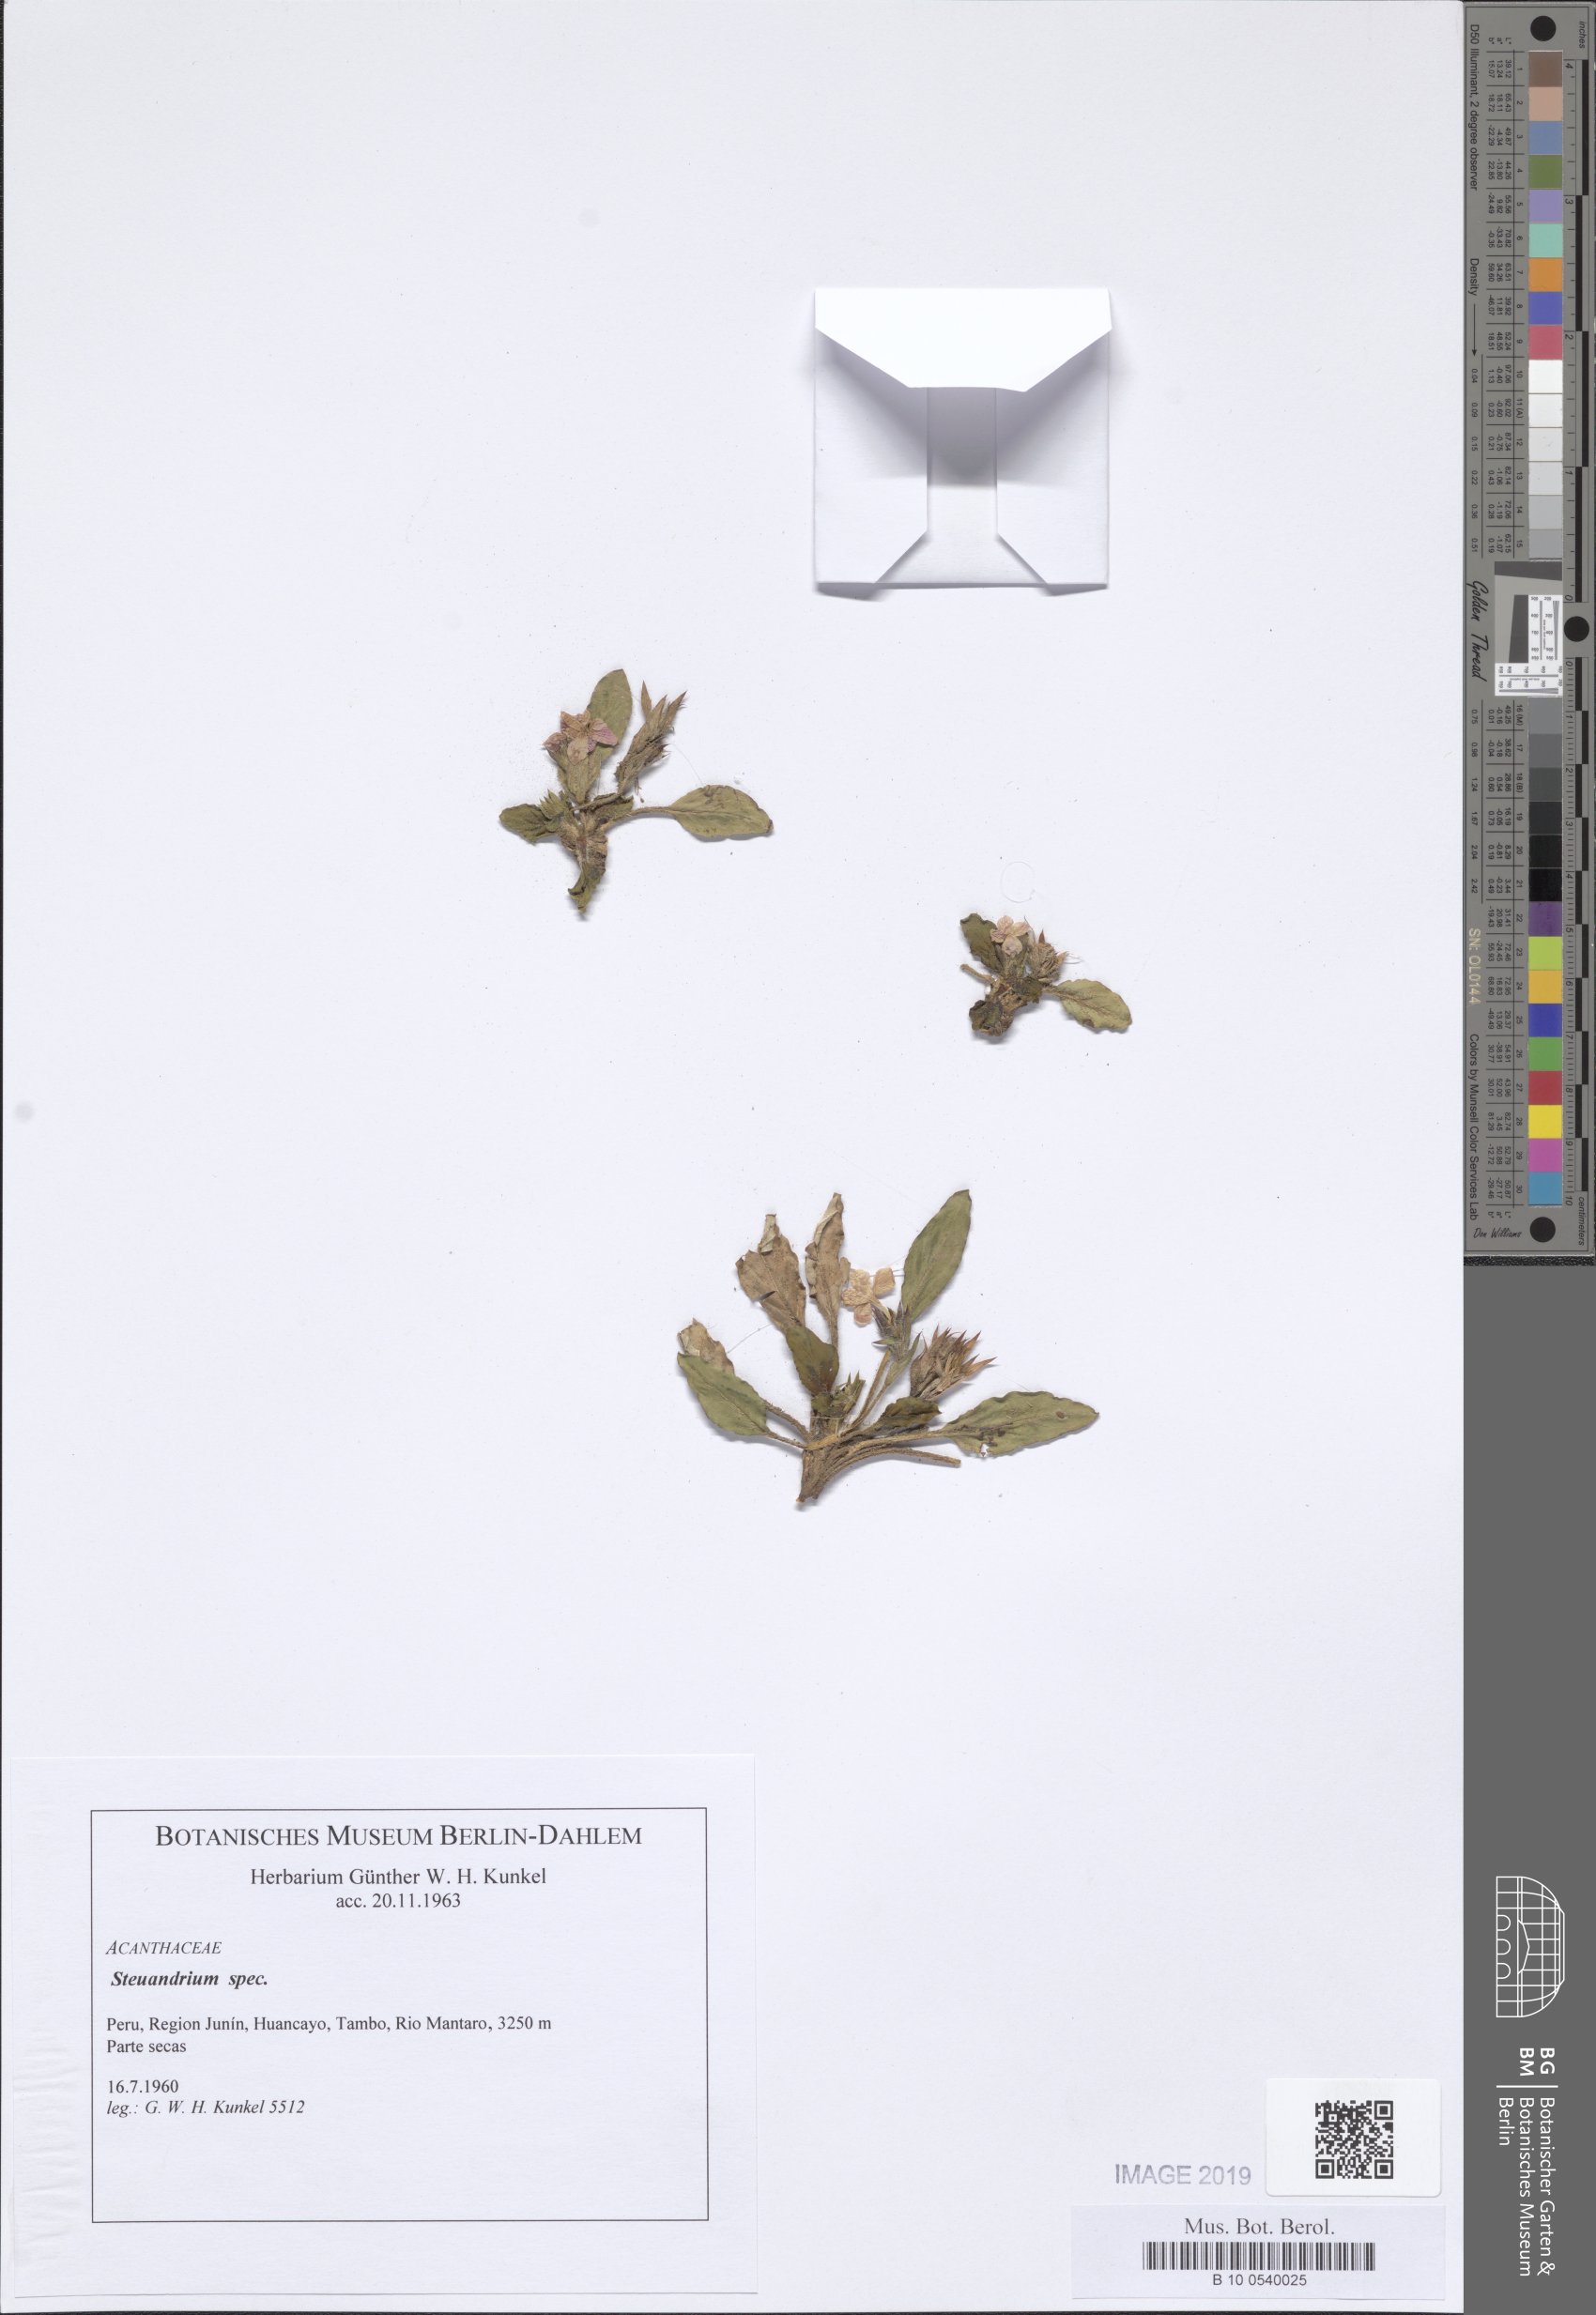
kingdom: Plantae
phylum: Tracheophyta
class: Magnoliopsida
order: Lamiales
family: Acanthaceae
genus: Stenandrium
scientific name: Stenandrium
